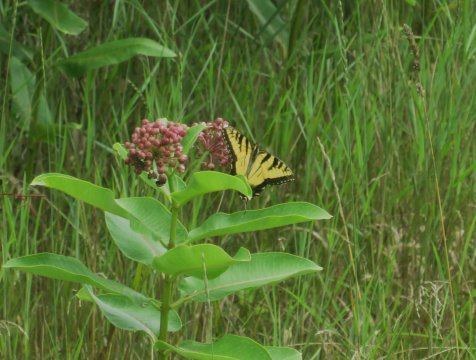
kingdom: Animalia
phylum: Arthropoda
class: Insecta
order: Lepidoptera
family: Papilionidae
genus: Pterourus
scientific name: Pterourus glaucus
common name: Eastern Tiger Swallowtail
